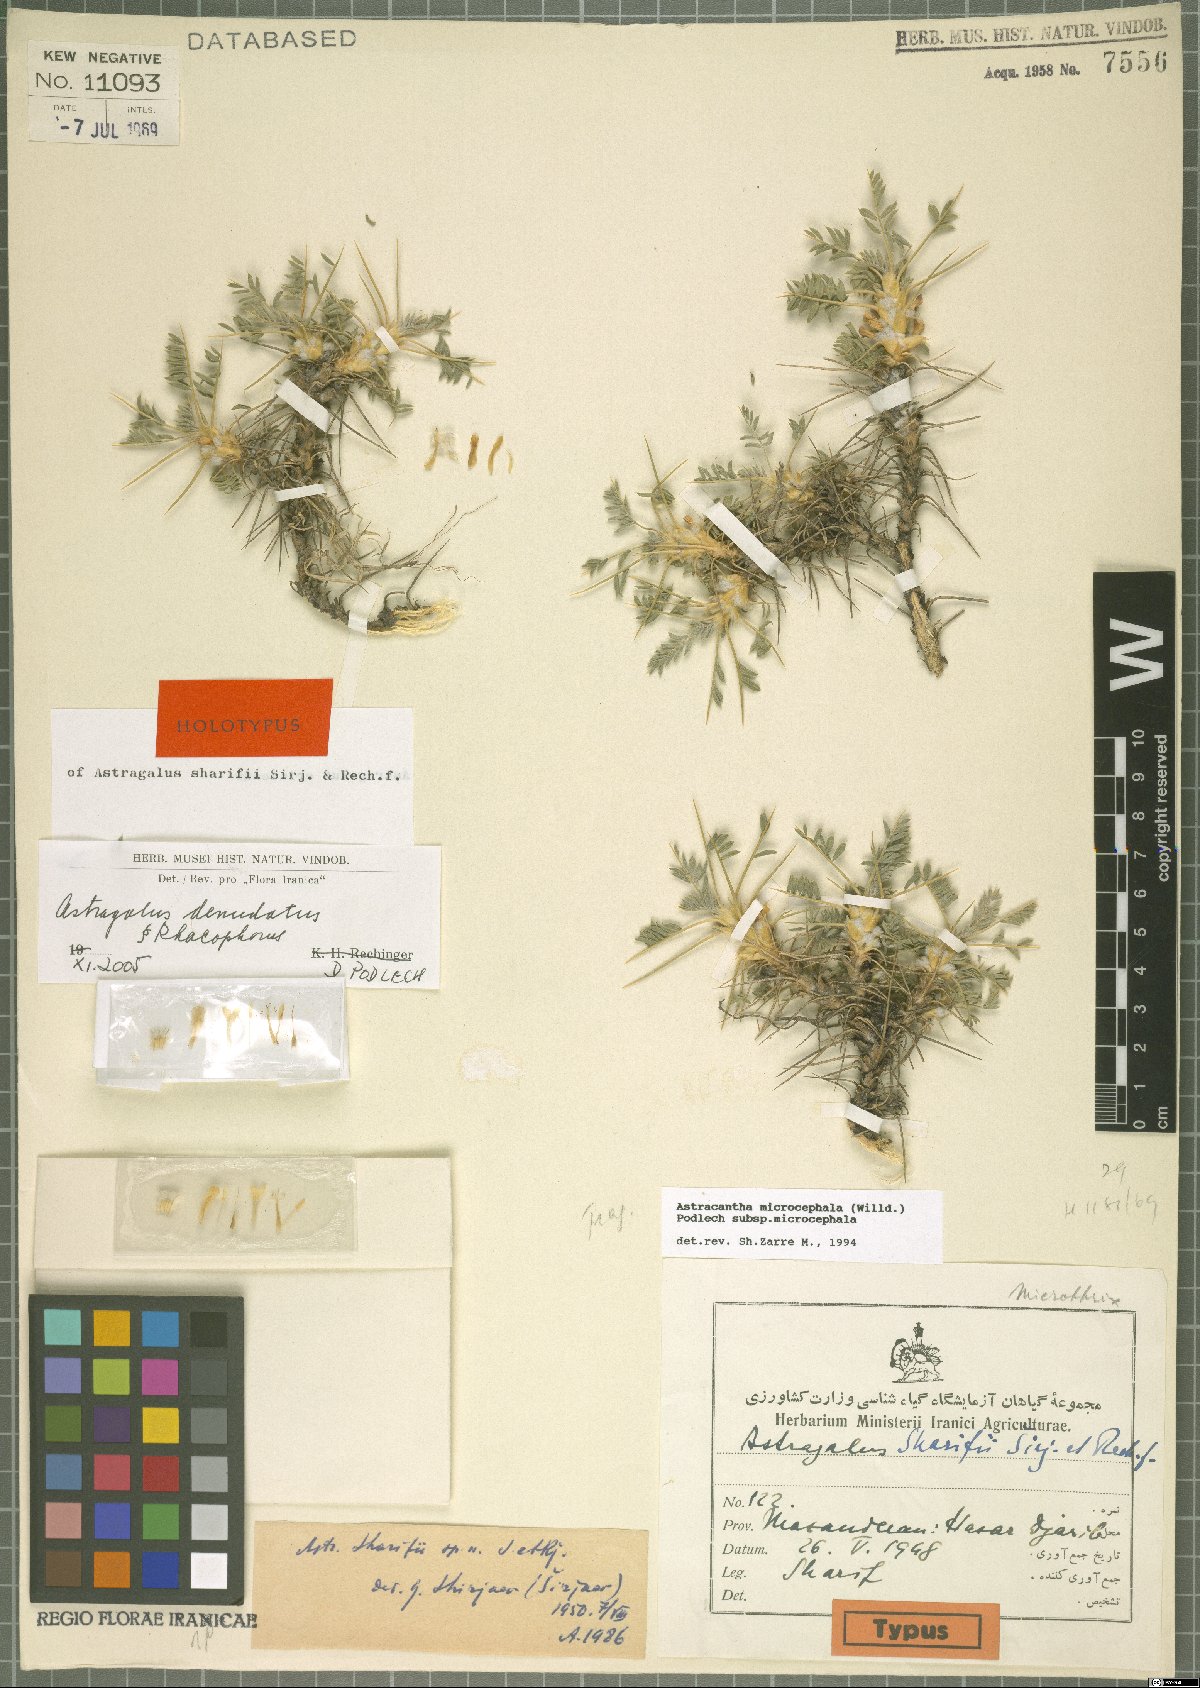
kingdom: Plantae
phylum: Tracheophyta
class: Magnoliopsida
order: Fabales
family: Fabaceae
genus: Astragalus
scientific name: Astragalus denudatus
